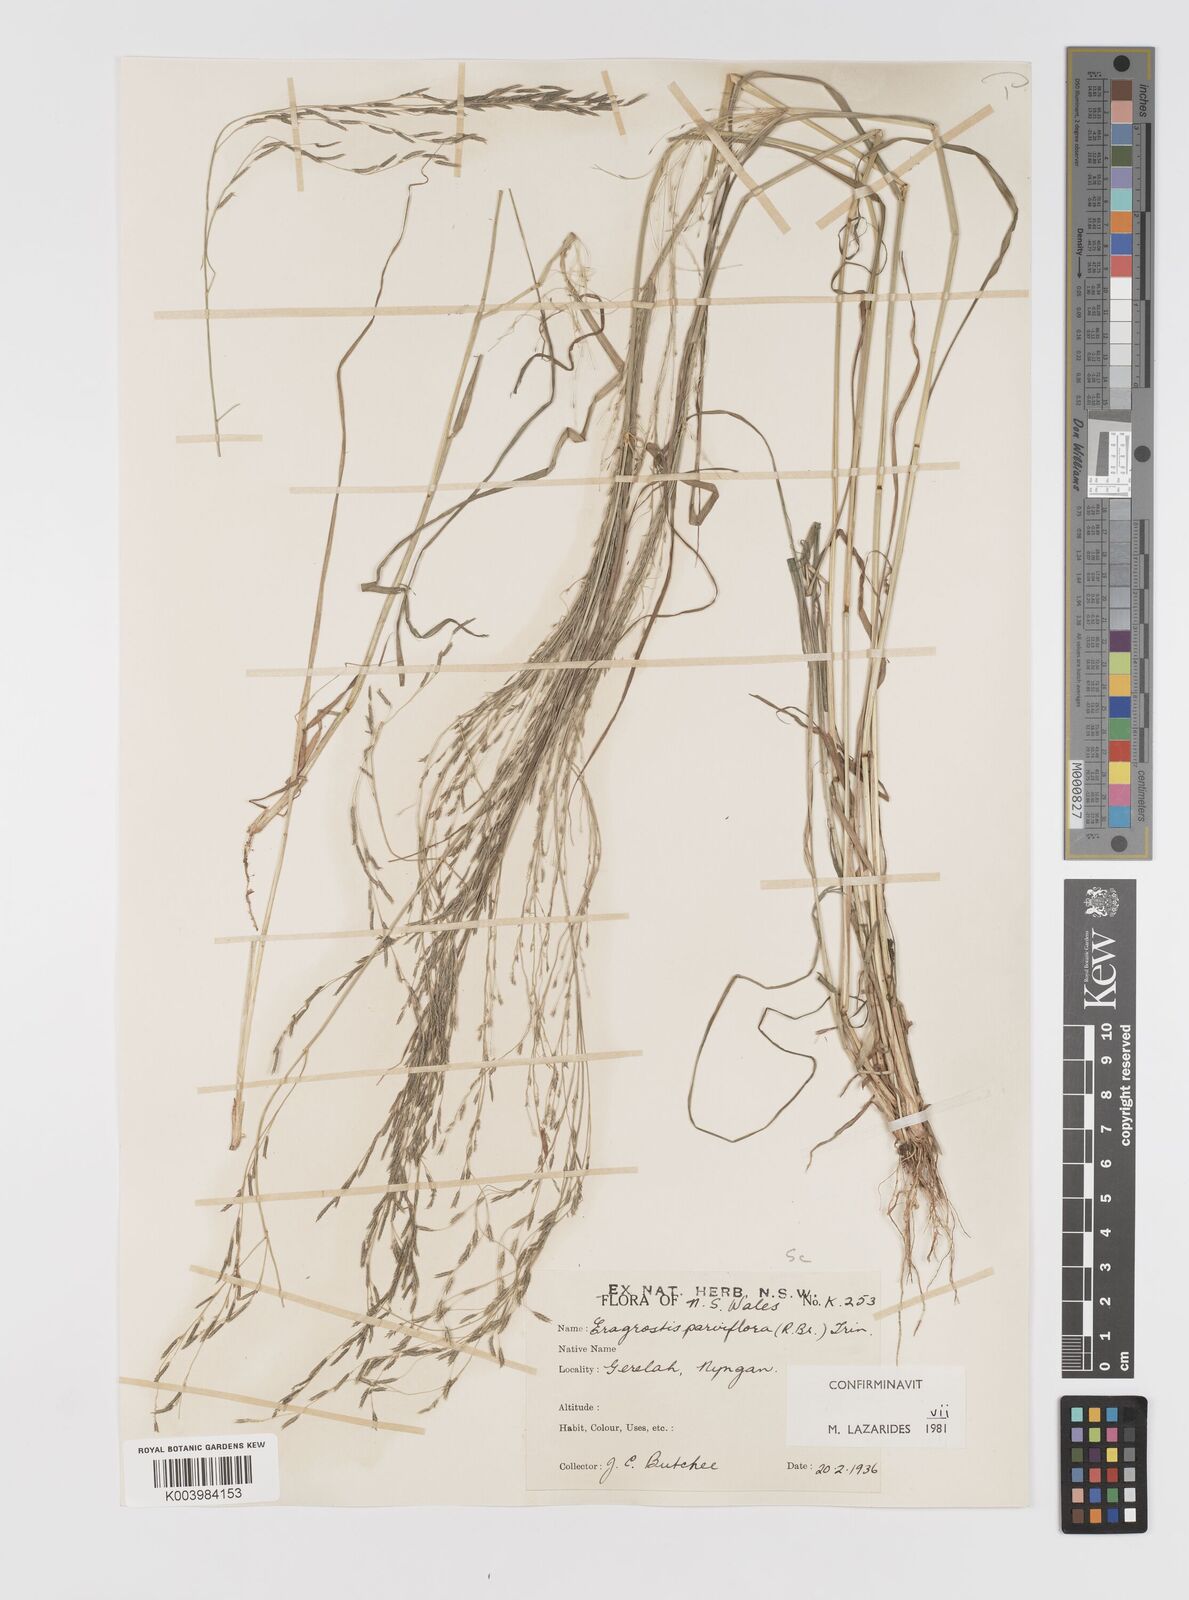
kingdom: Plantae
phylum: Tracheophyta
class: Liliopsida
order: Poales
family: Poaceae
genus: Eragrostis
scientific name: Eragrostis parviflora
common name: Weeping love-grass
